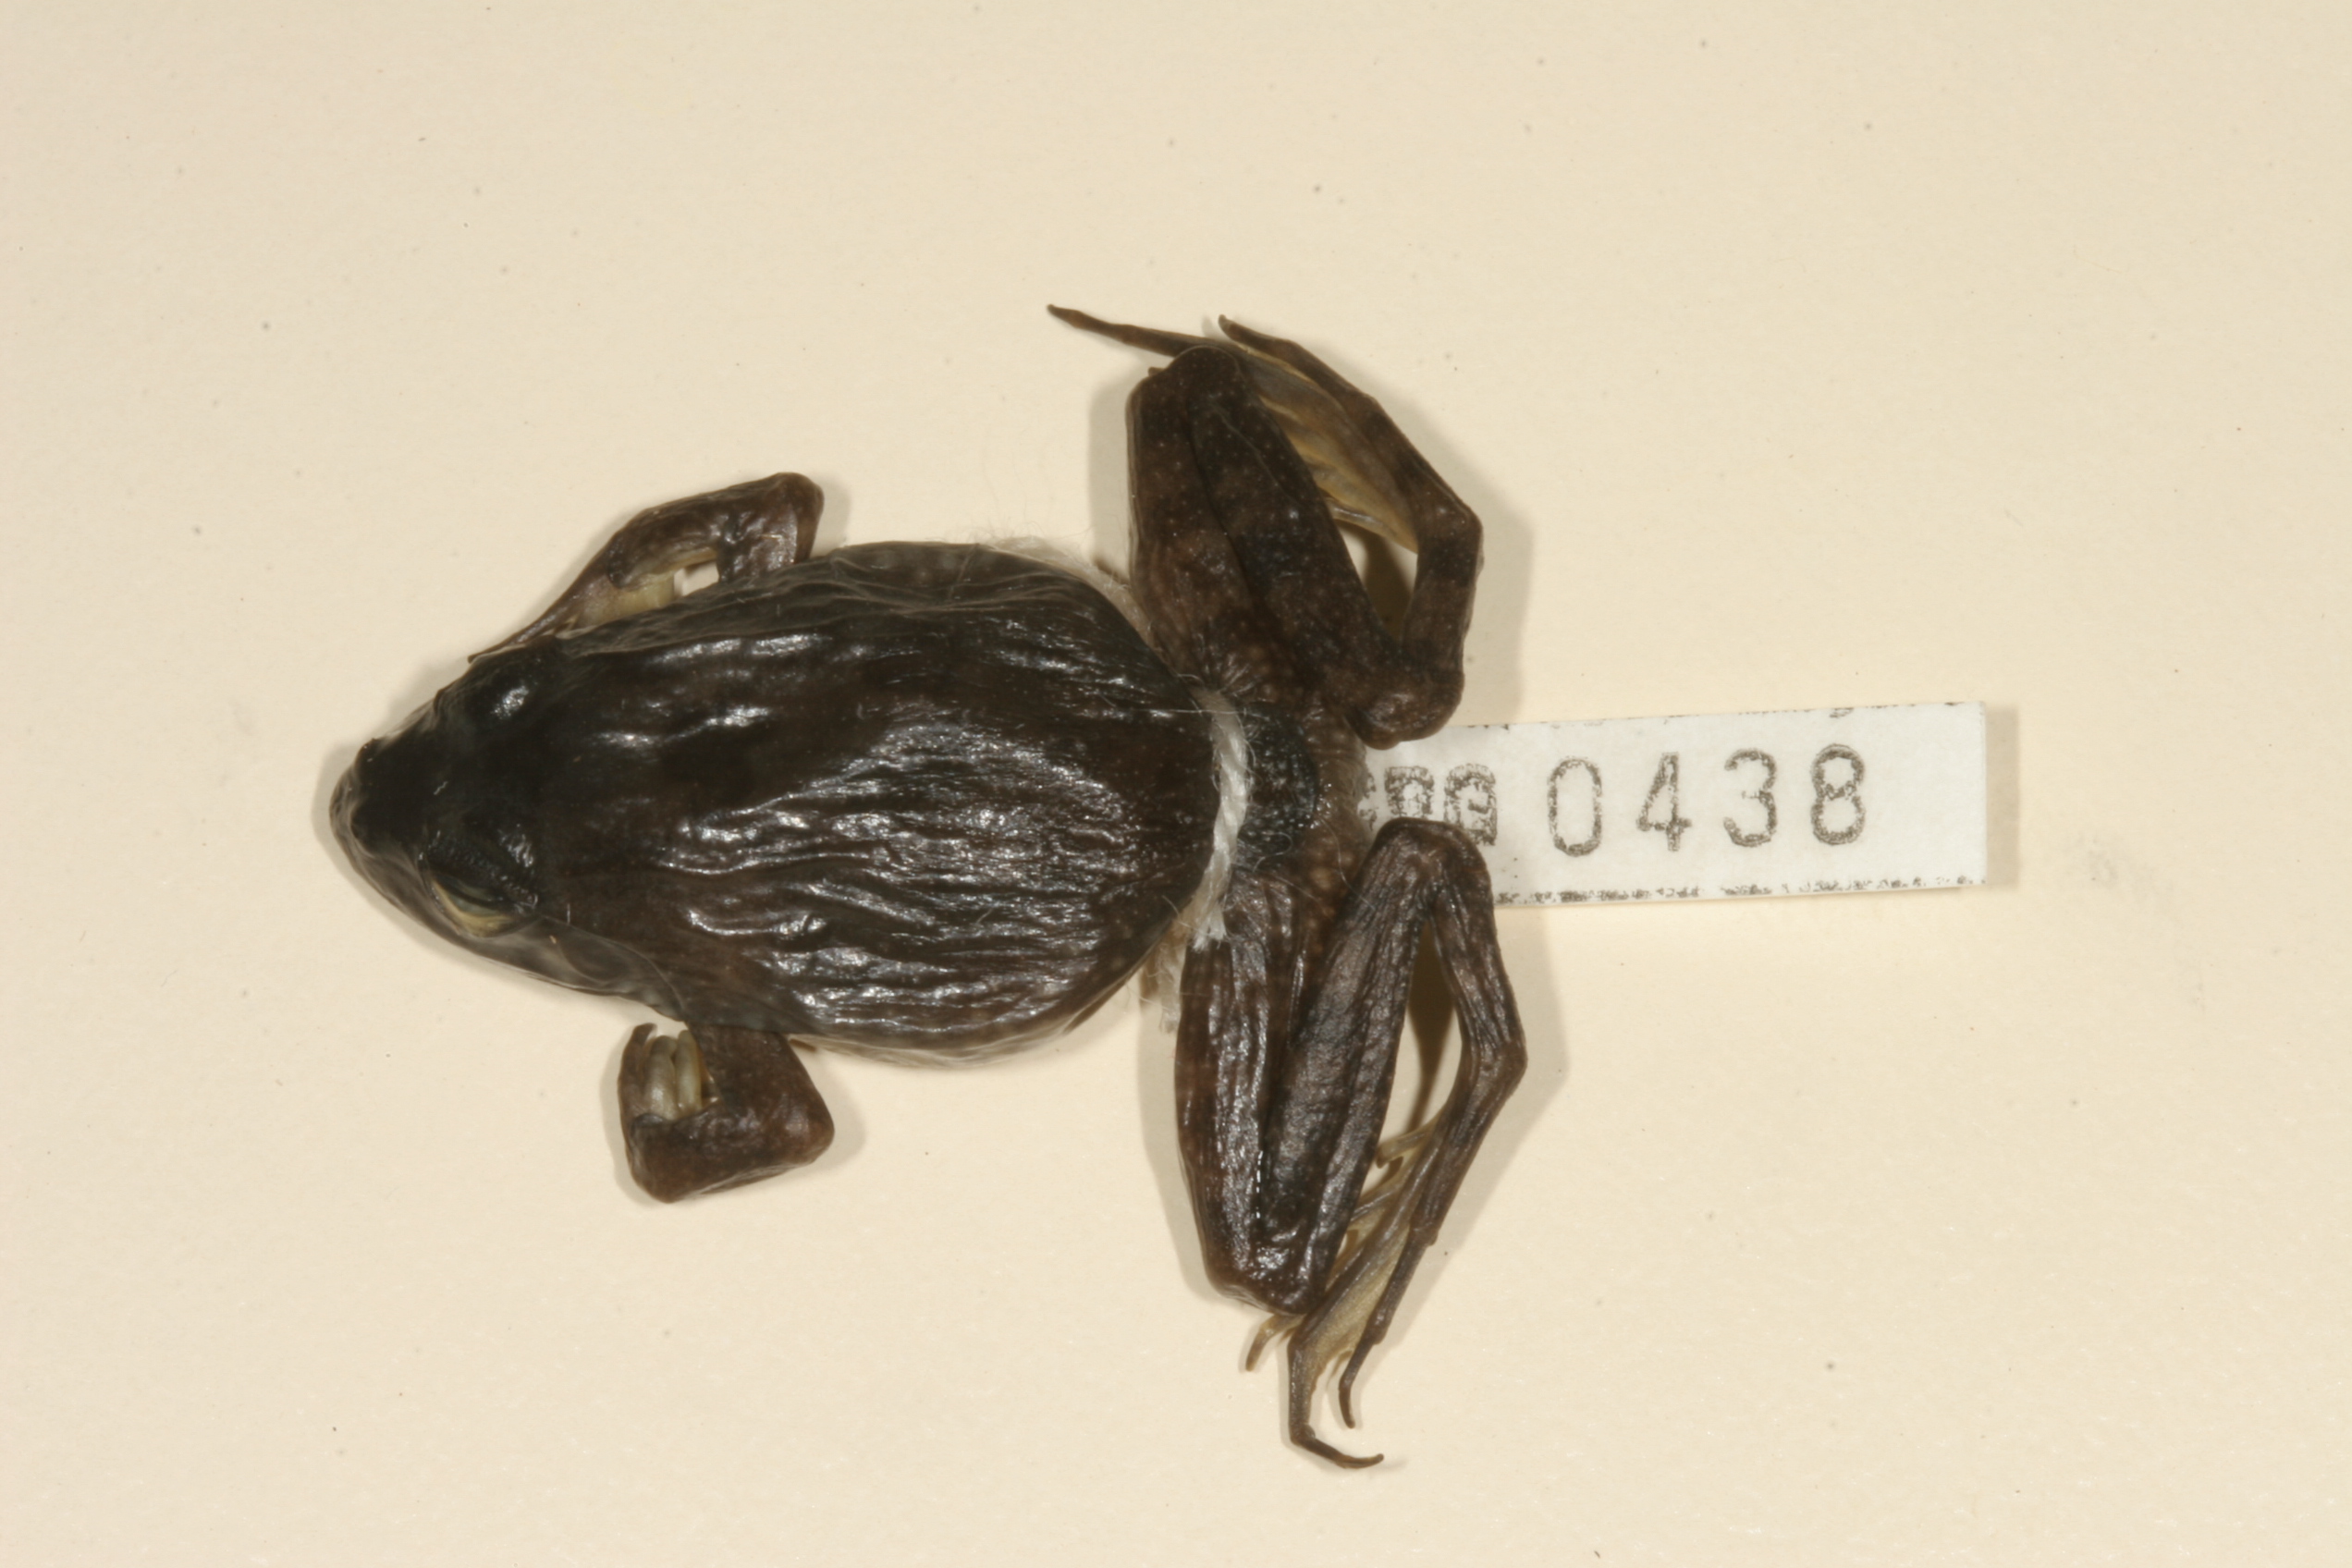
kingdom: Animalia
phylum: Chordata
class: Amphibia
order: Anura
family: Pyxicephalidae
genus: Amietia
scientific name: Amietia fuscigula
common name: Cape rana
